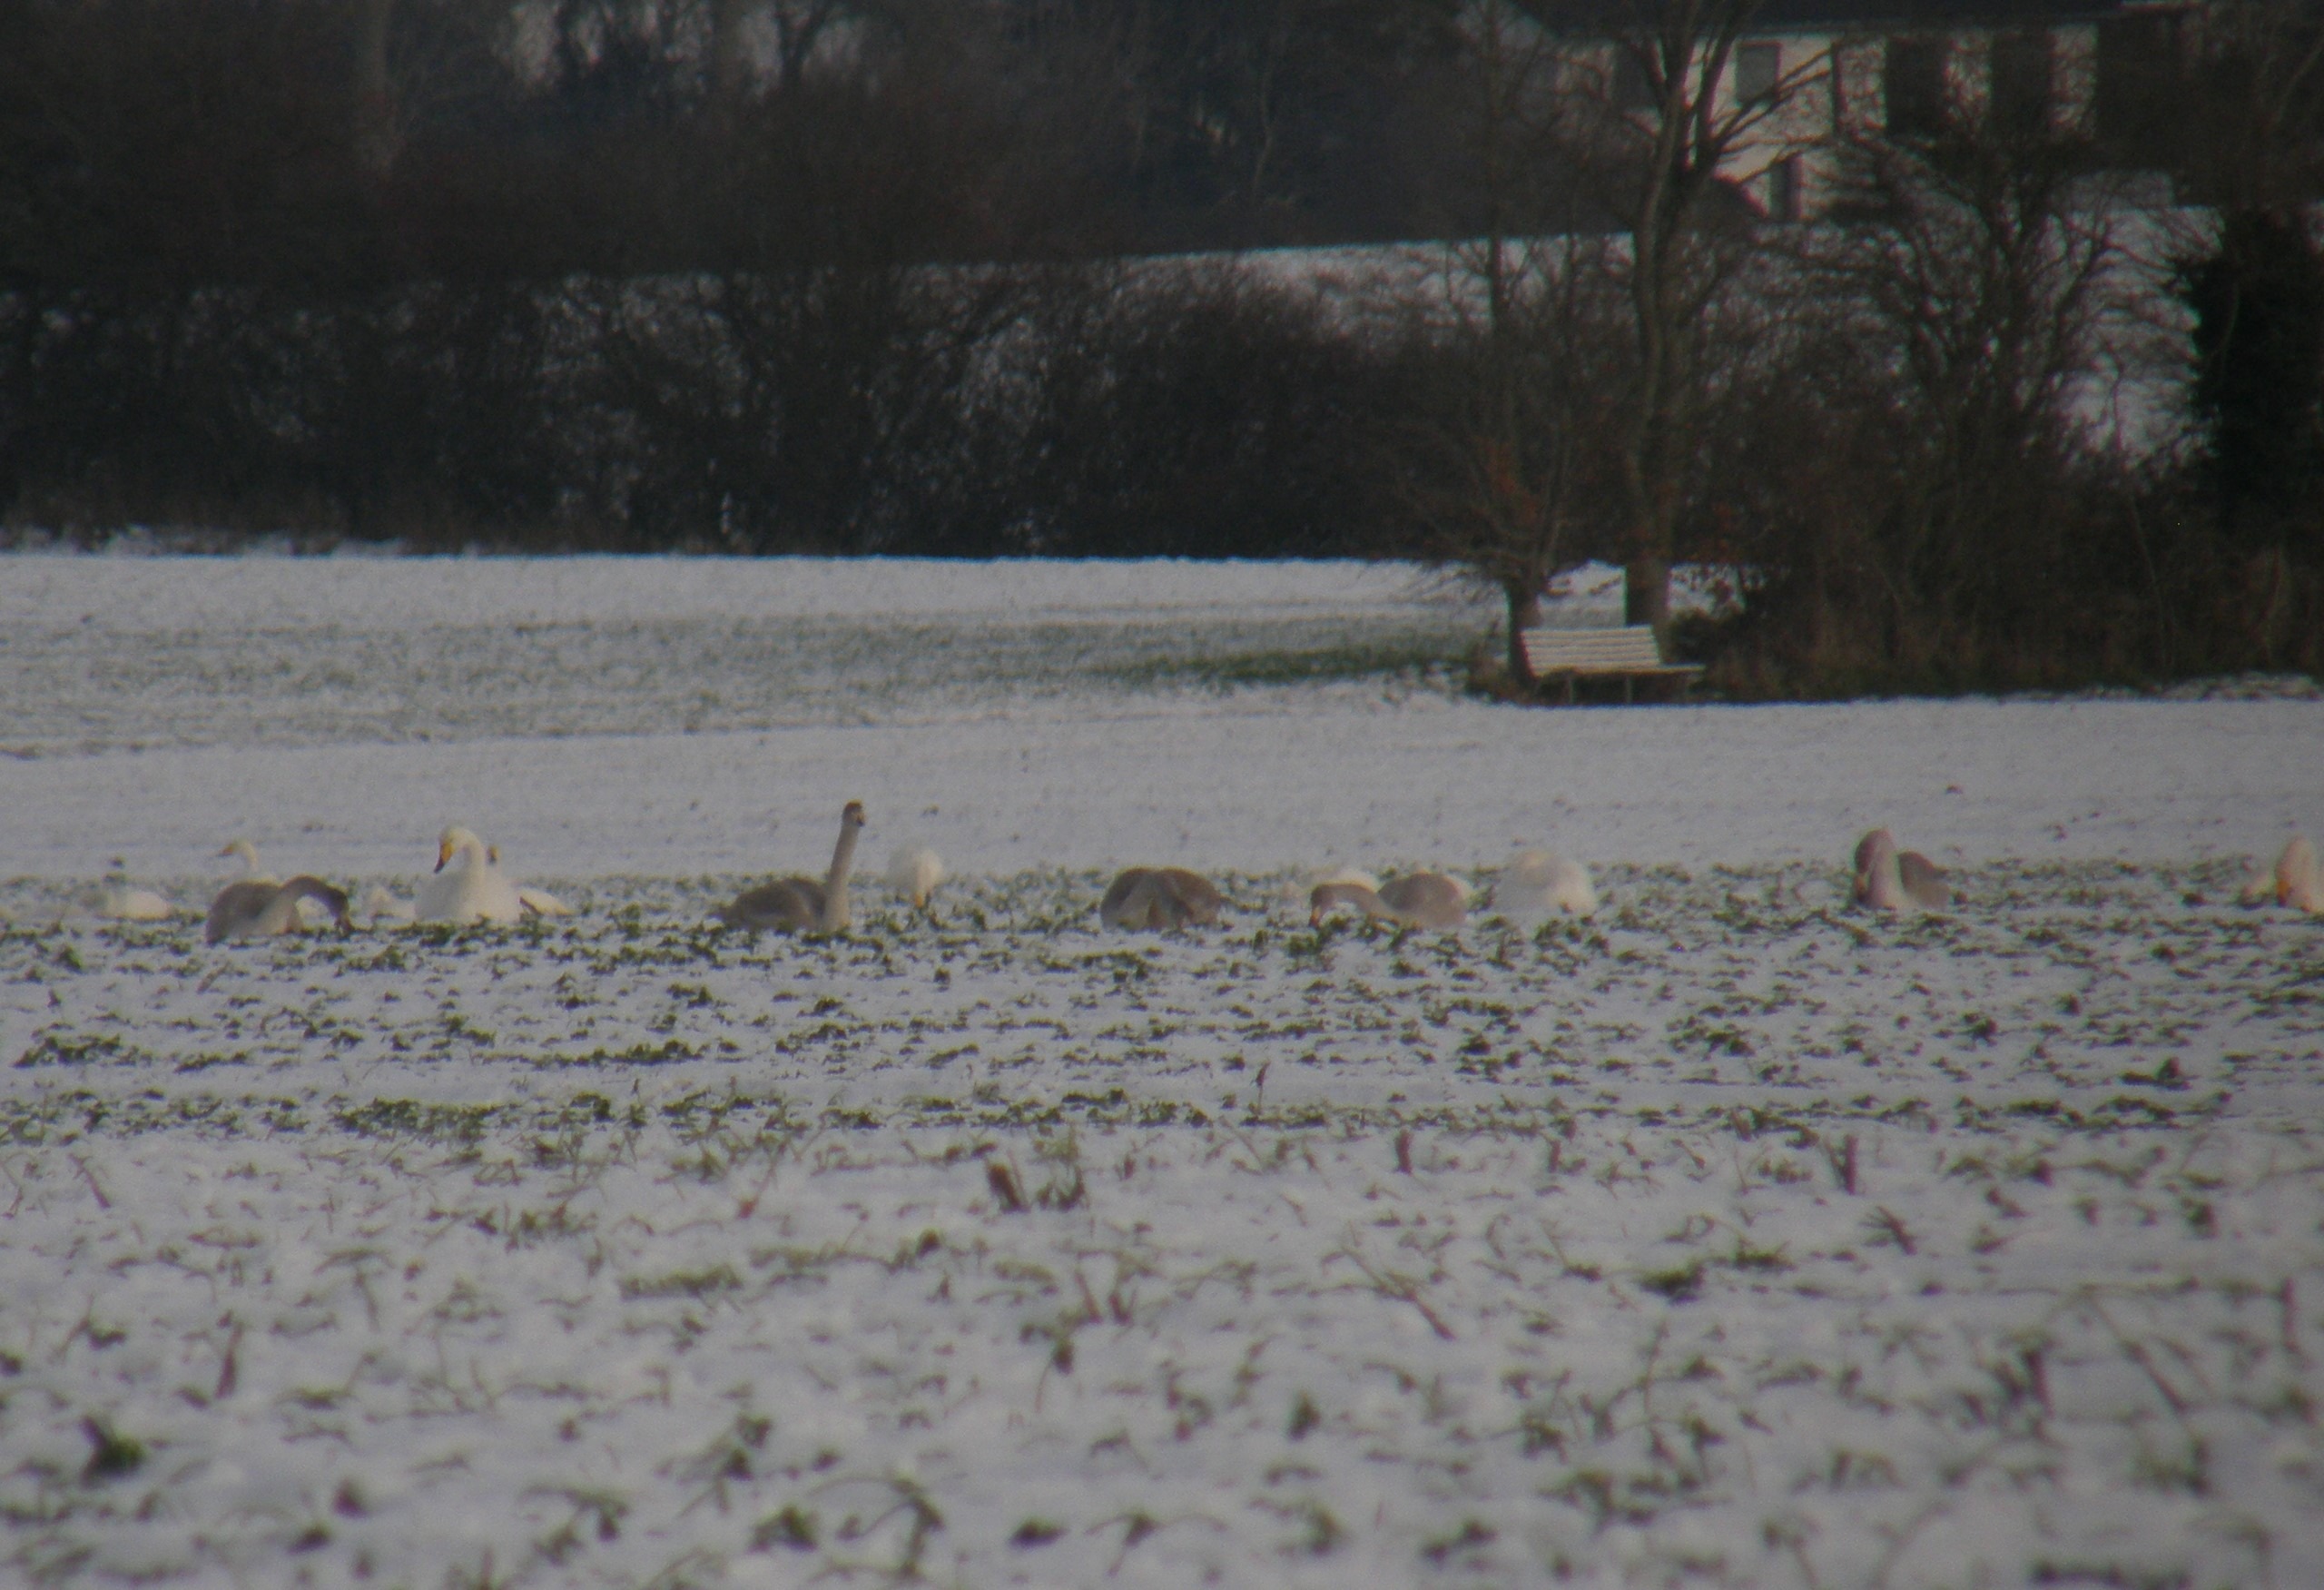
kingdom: Animalia
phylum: Chordata
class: Aves
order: Anseriformes
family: Anatidae
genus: Cygnus
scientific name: Cygnus cygnus
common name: Sangsvane
